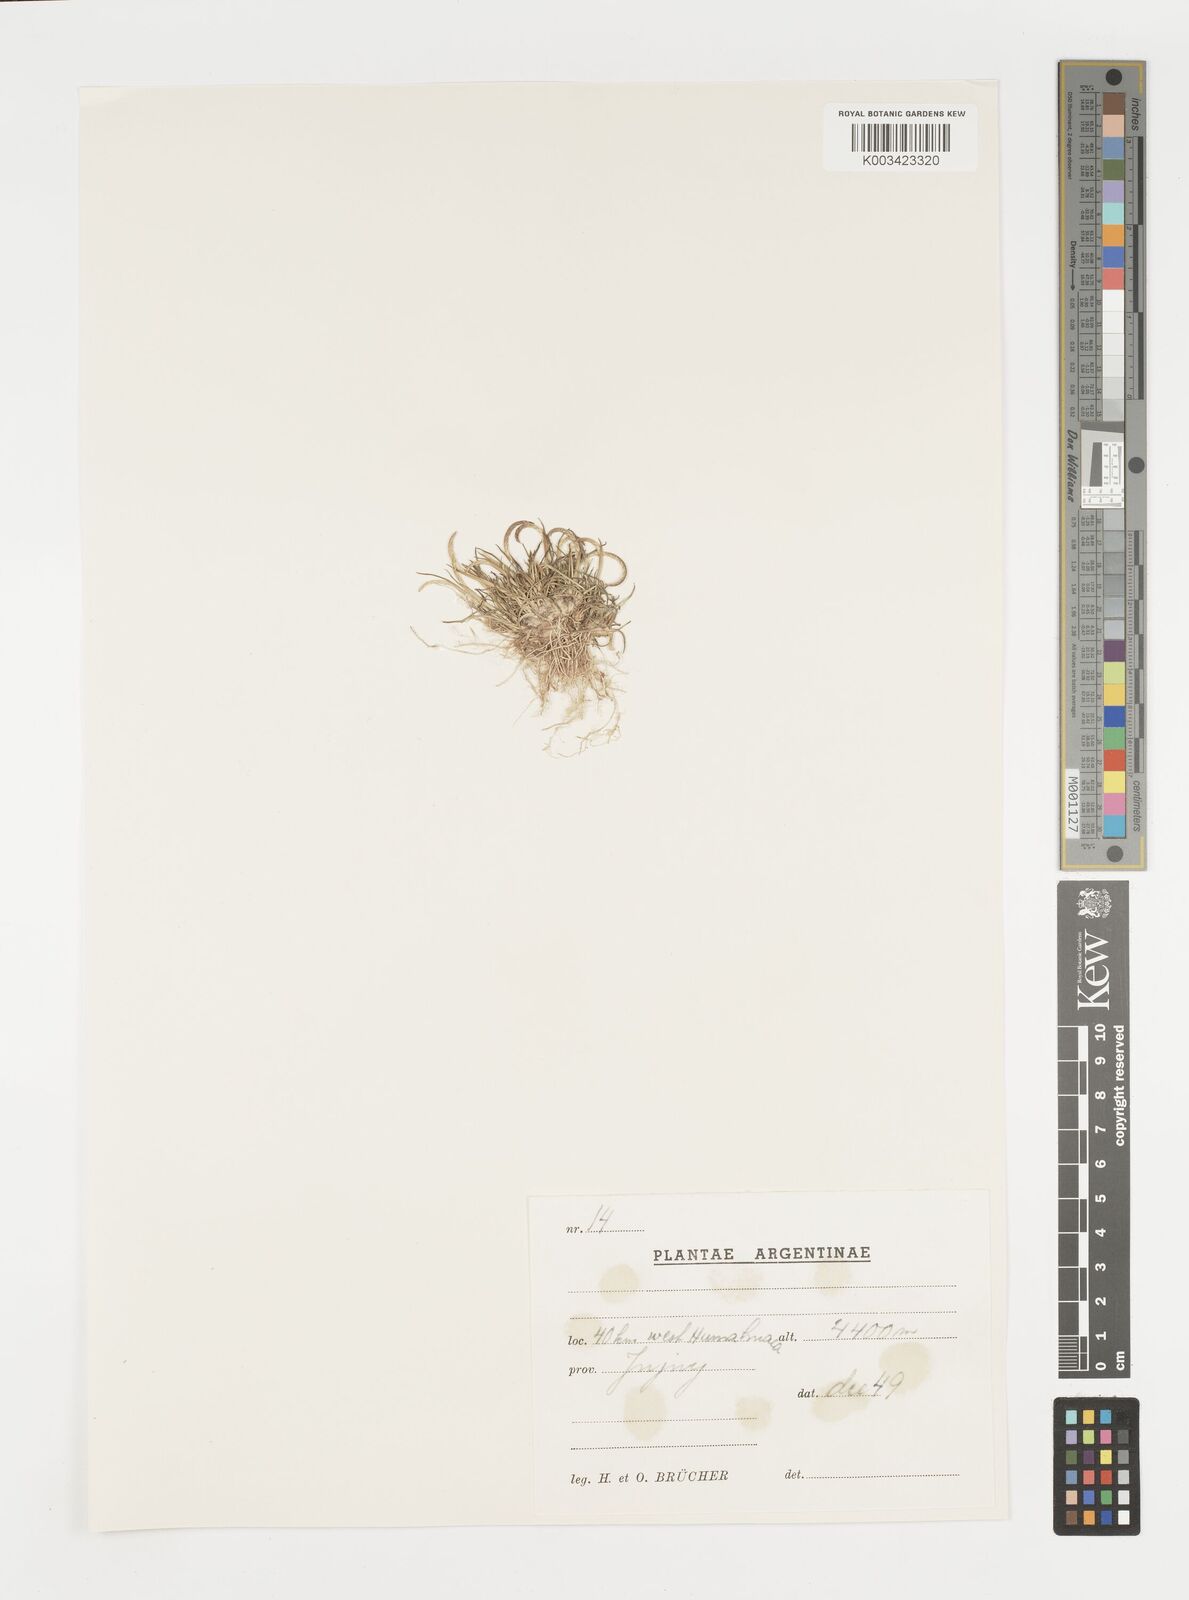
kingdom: Plantae
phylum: Tracheophyta
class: Liliopsida
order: Poales
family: Poaceae
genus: Microchloa
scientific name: Microchloa kunthii
